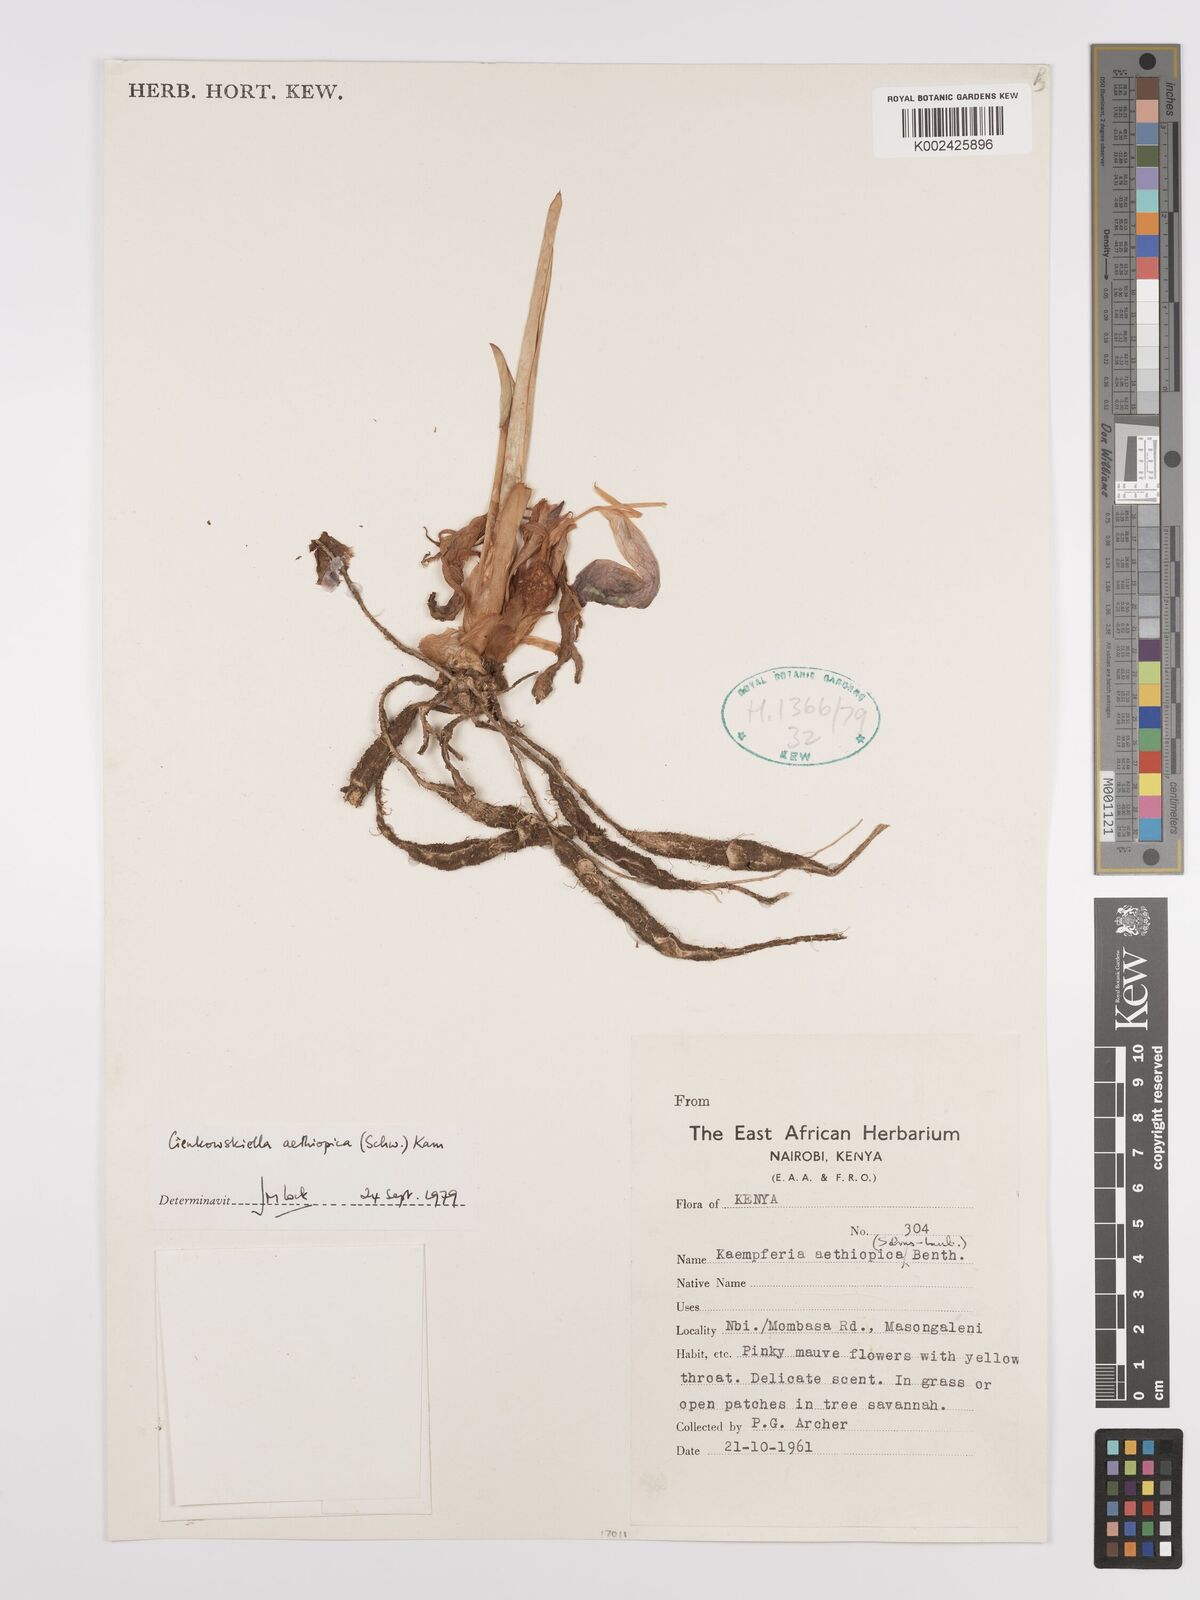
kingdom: Plantae
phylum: Tracheophyta
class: Liliopsida
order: Zingiberales
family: Zingiberaceae
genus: Siphonochilus
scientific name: Siphonochilus aethiopicus
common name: African-ginger
